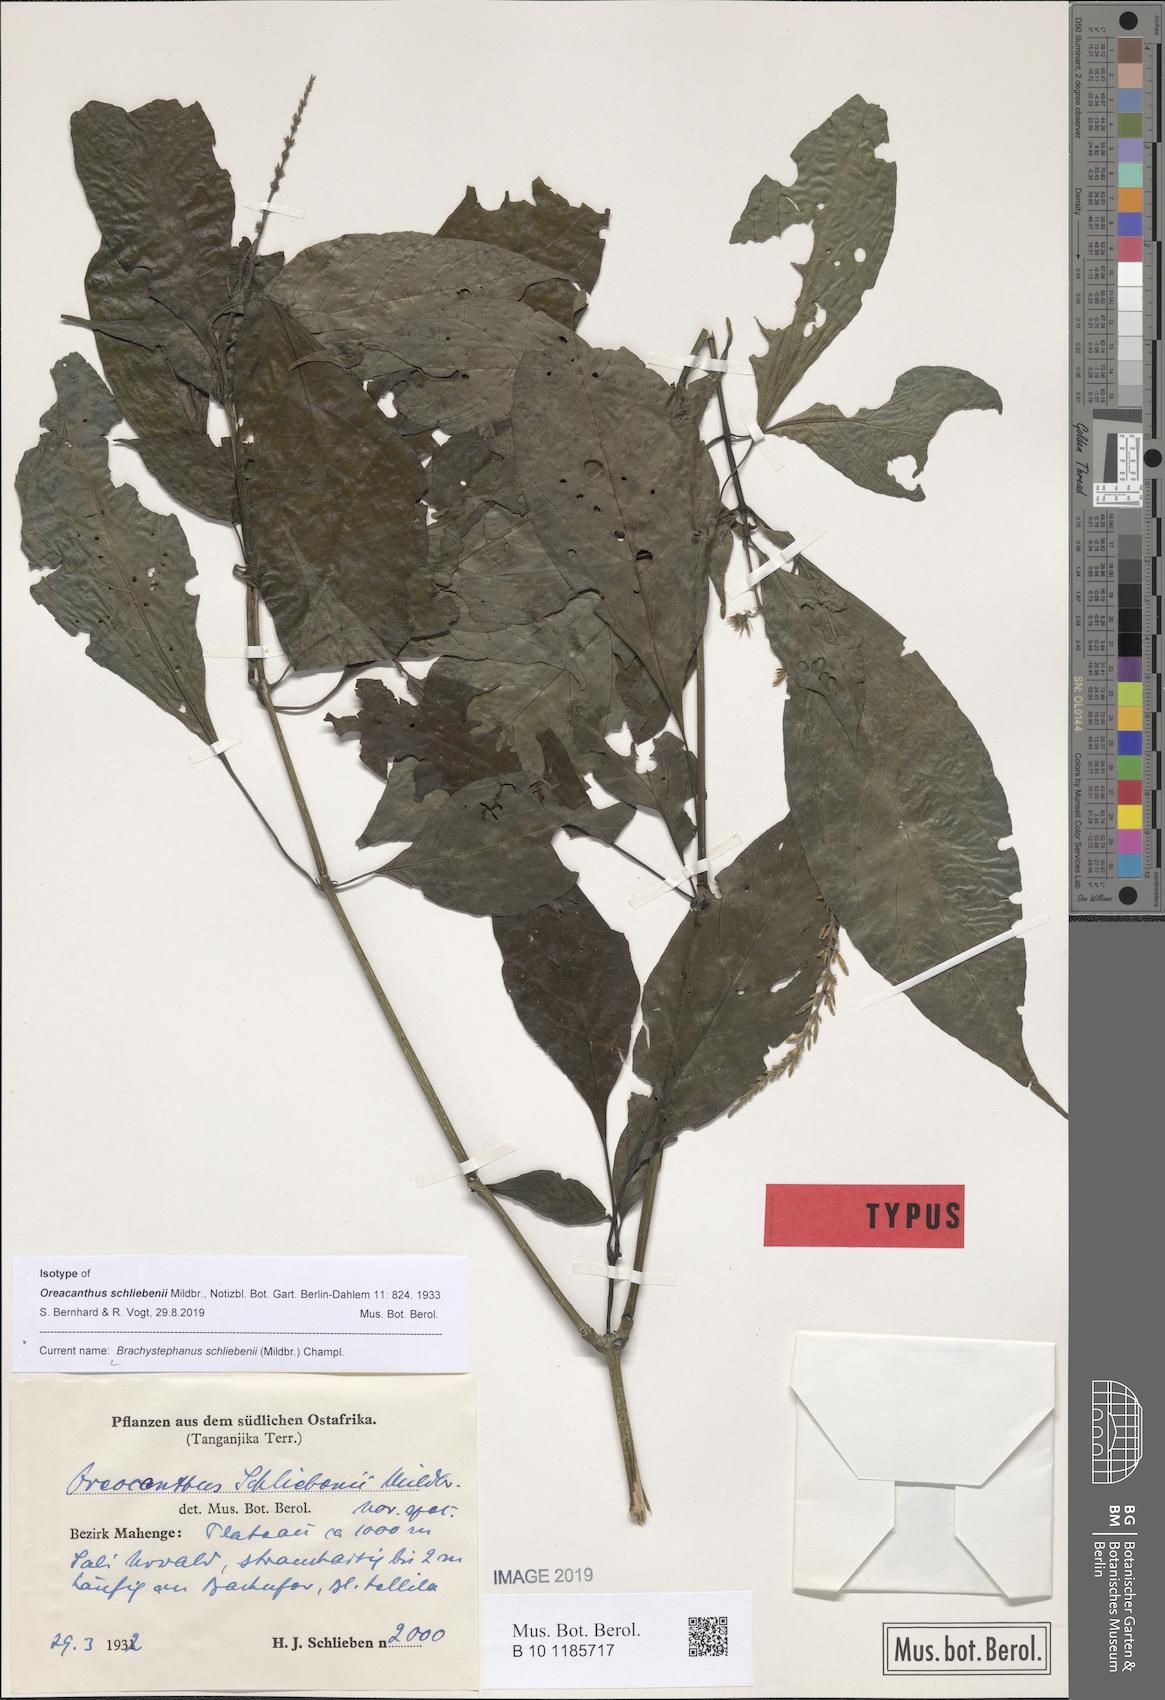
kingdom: Plantae
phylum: Tracheophyta
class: Magnoliopsida
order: Lamiales
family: Acanthaceae
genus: Brachystephanus
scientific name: Brachystephanus schliebenii
